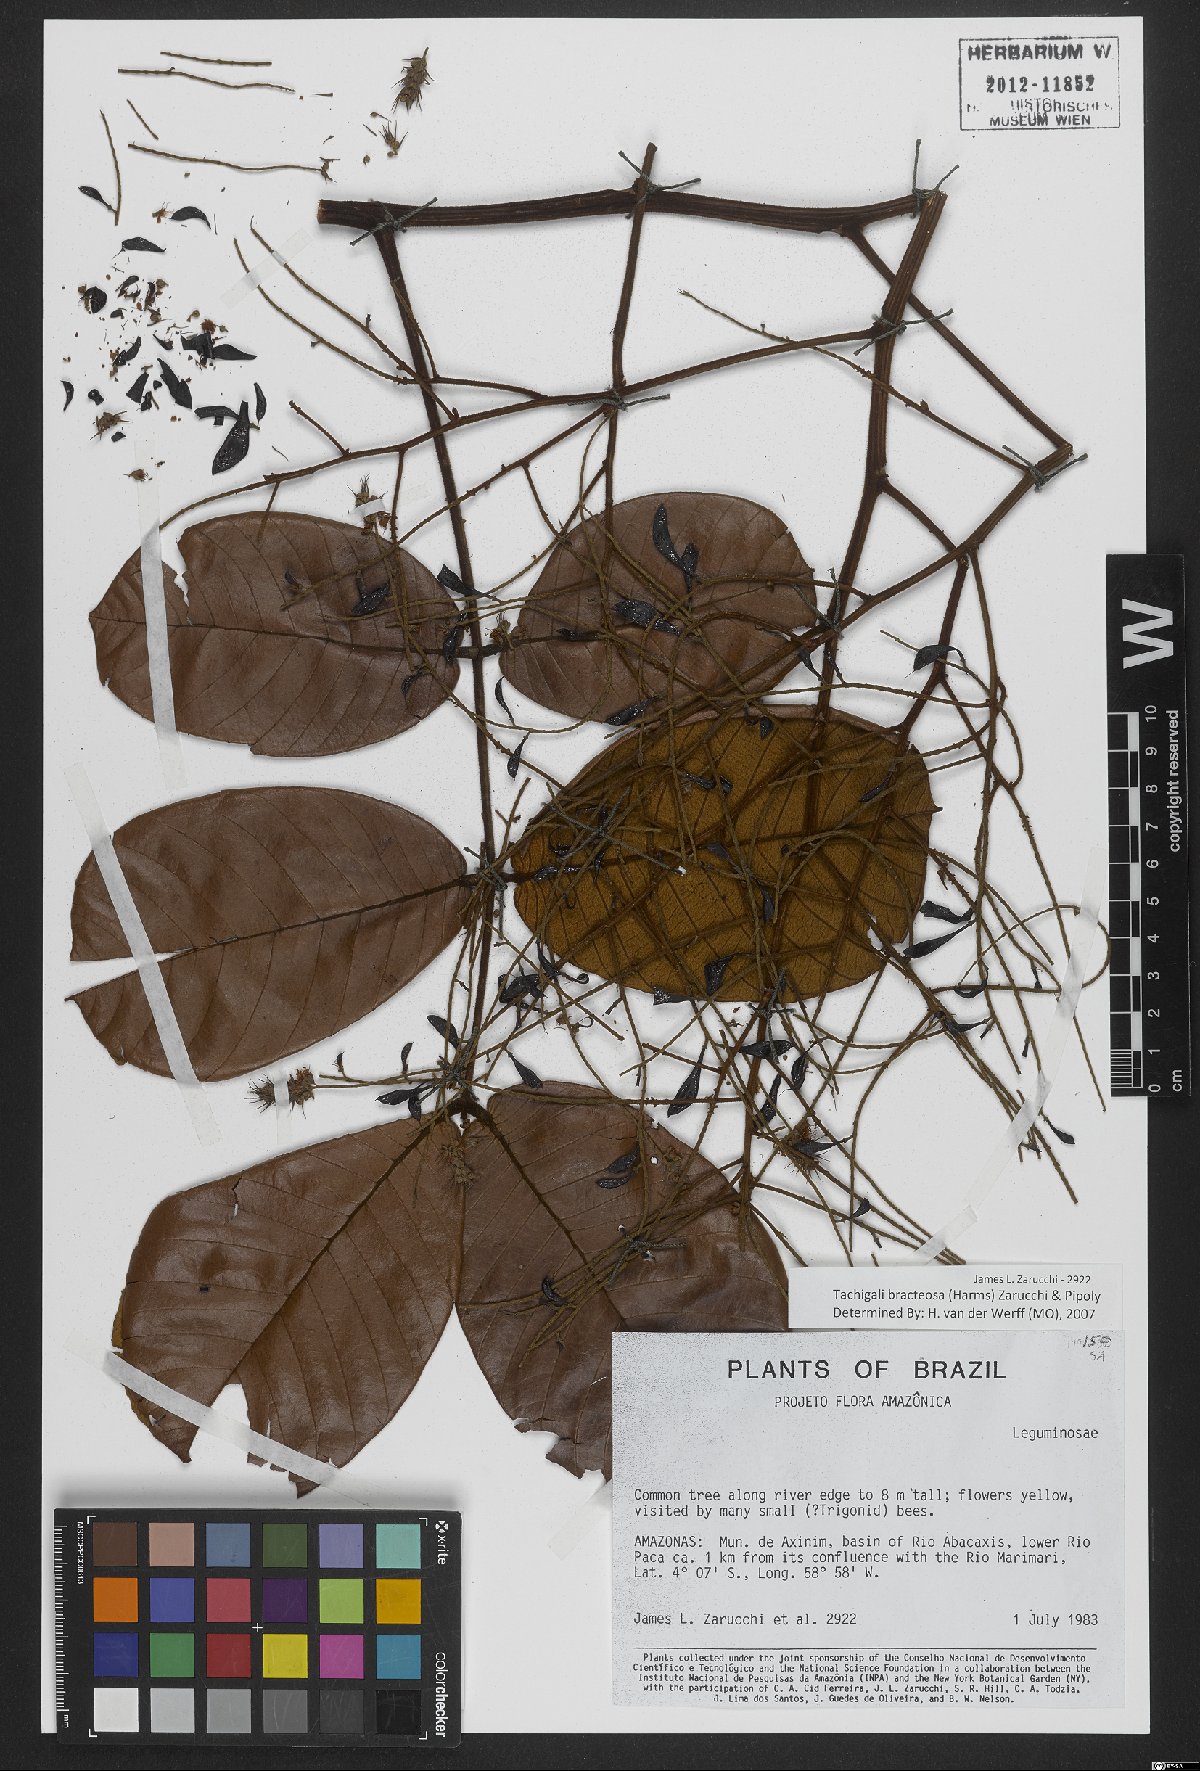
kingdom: Plantae
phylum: Tracheophyta
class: Magnoliopsida
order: Fabales
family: Fabaceae
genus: Tachigali
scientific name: Tachigali bracteosa
